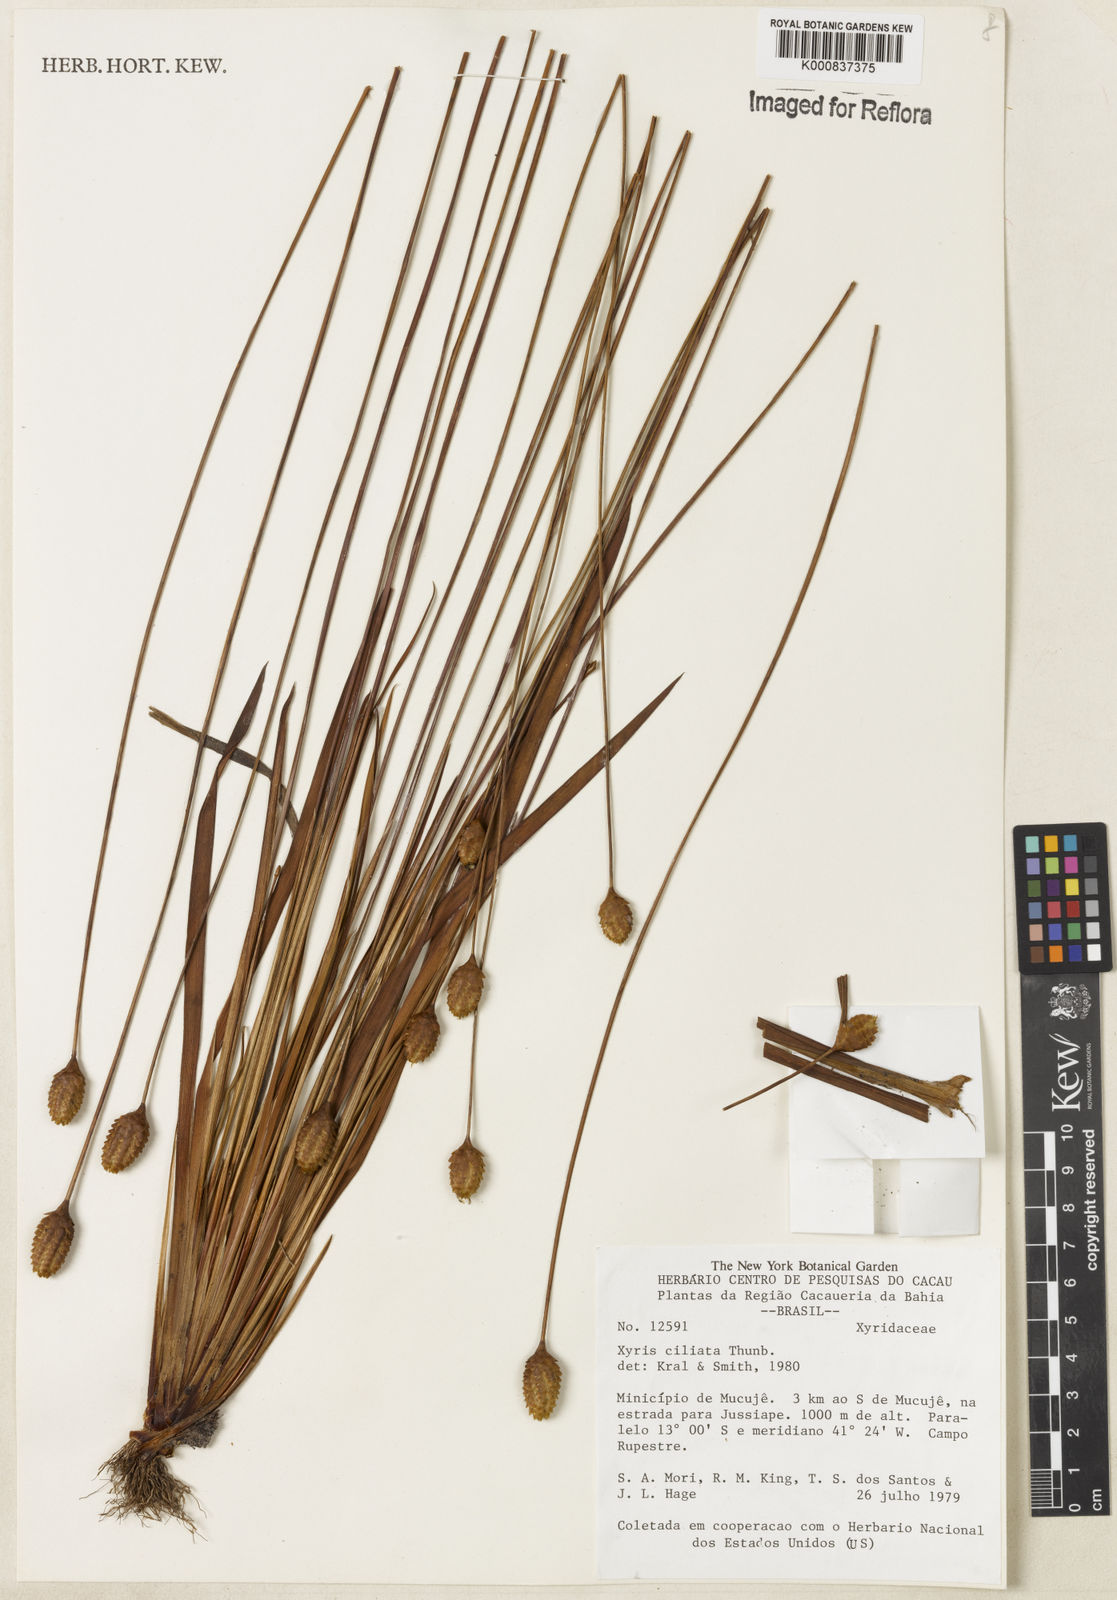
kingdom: Plantae
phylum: Tracheophyta
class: Liliopsida
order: Poales
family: Xyridaceae
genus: Xyris
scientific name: Xyris ciliata
